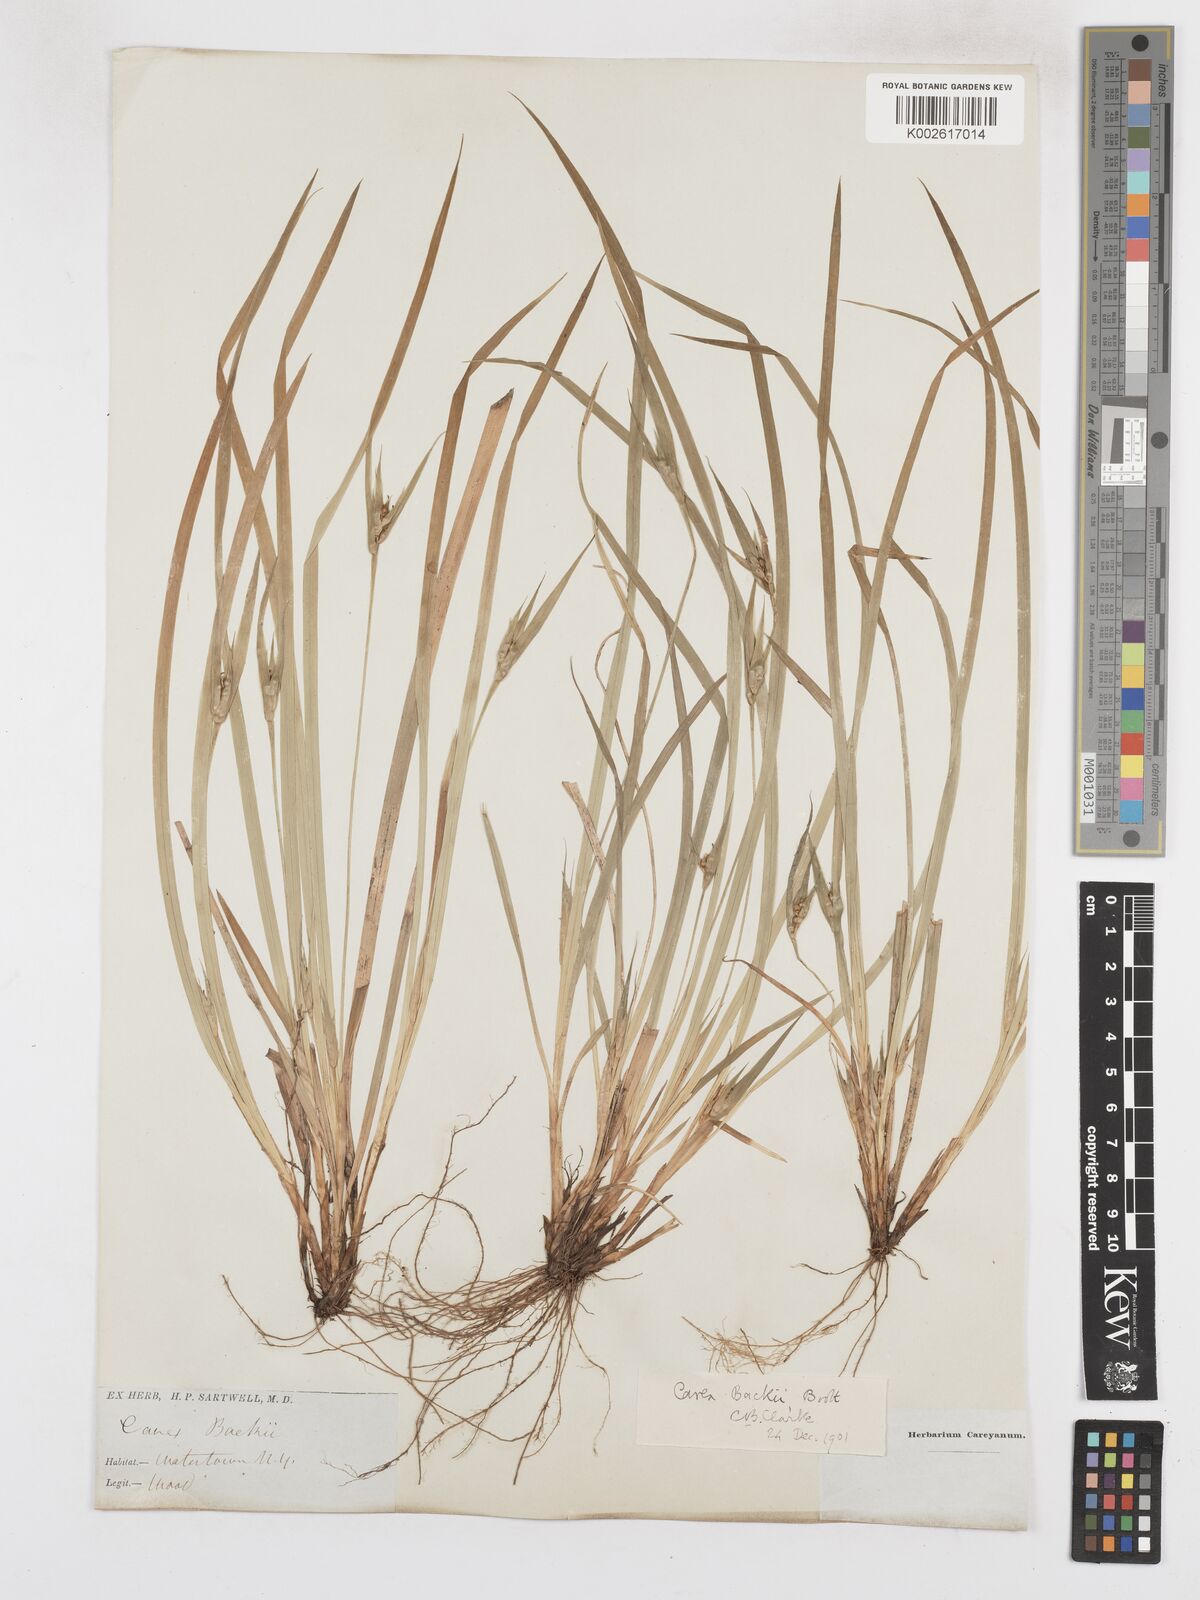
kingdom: Plantae
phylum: Tracheophyta
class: Liliopsida
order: Poales
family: Cyperaceae
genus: Carex
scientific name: Carex backii
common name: Back's sedge
